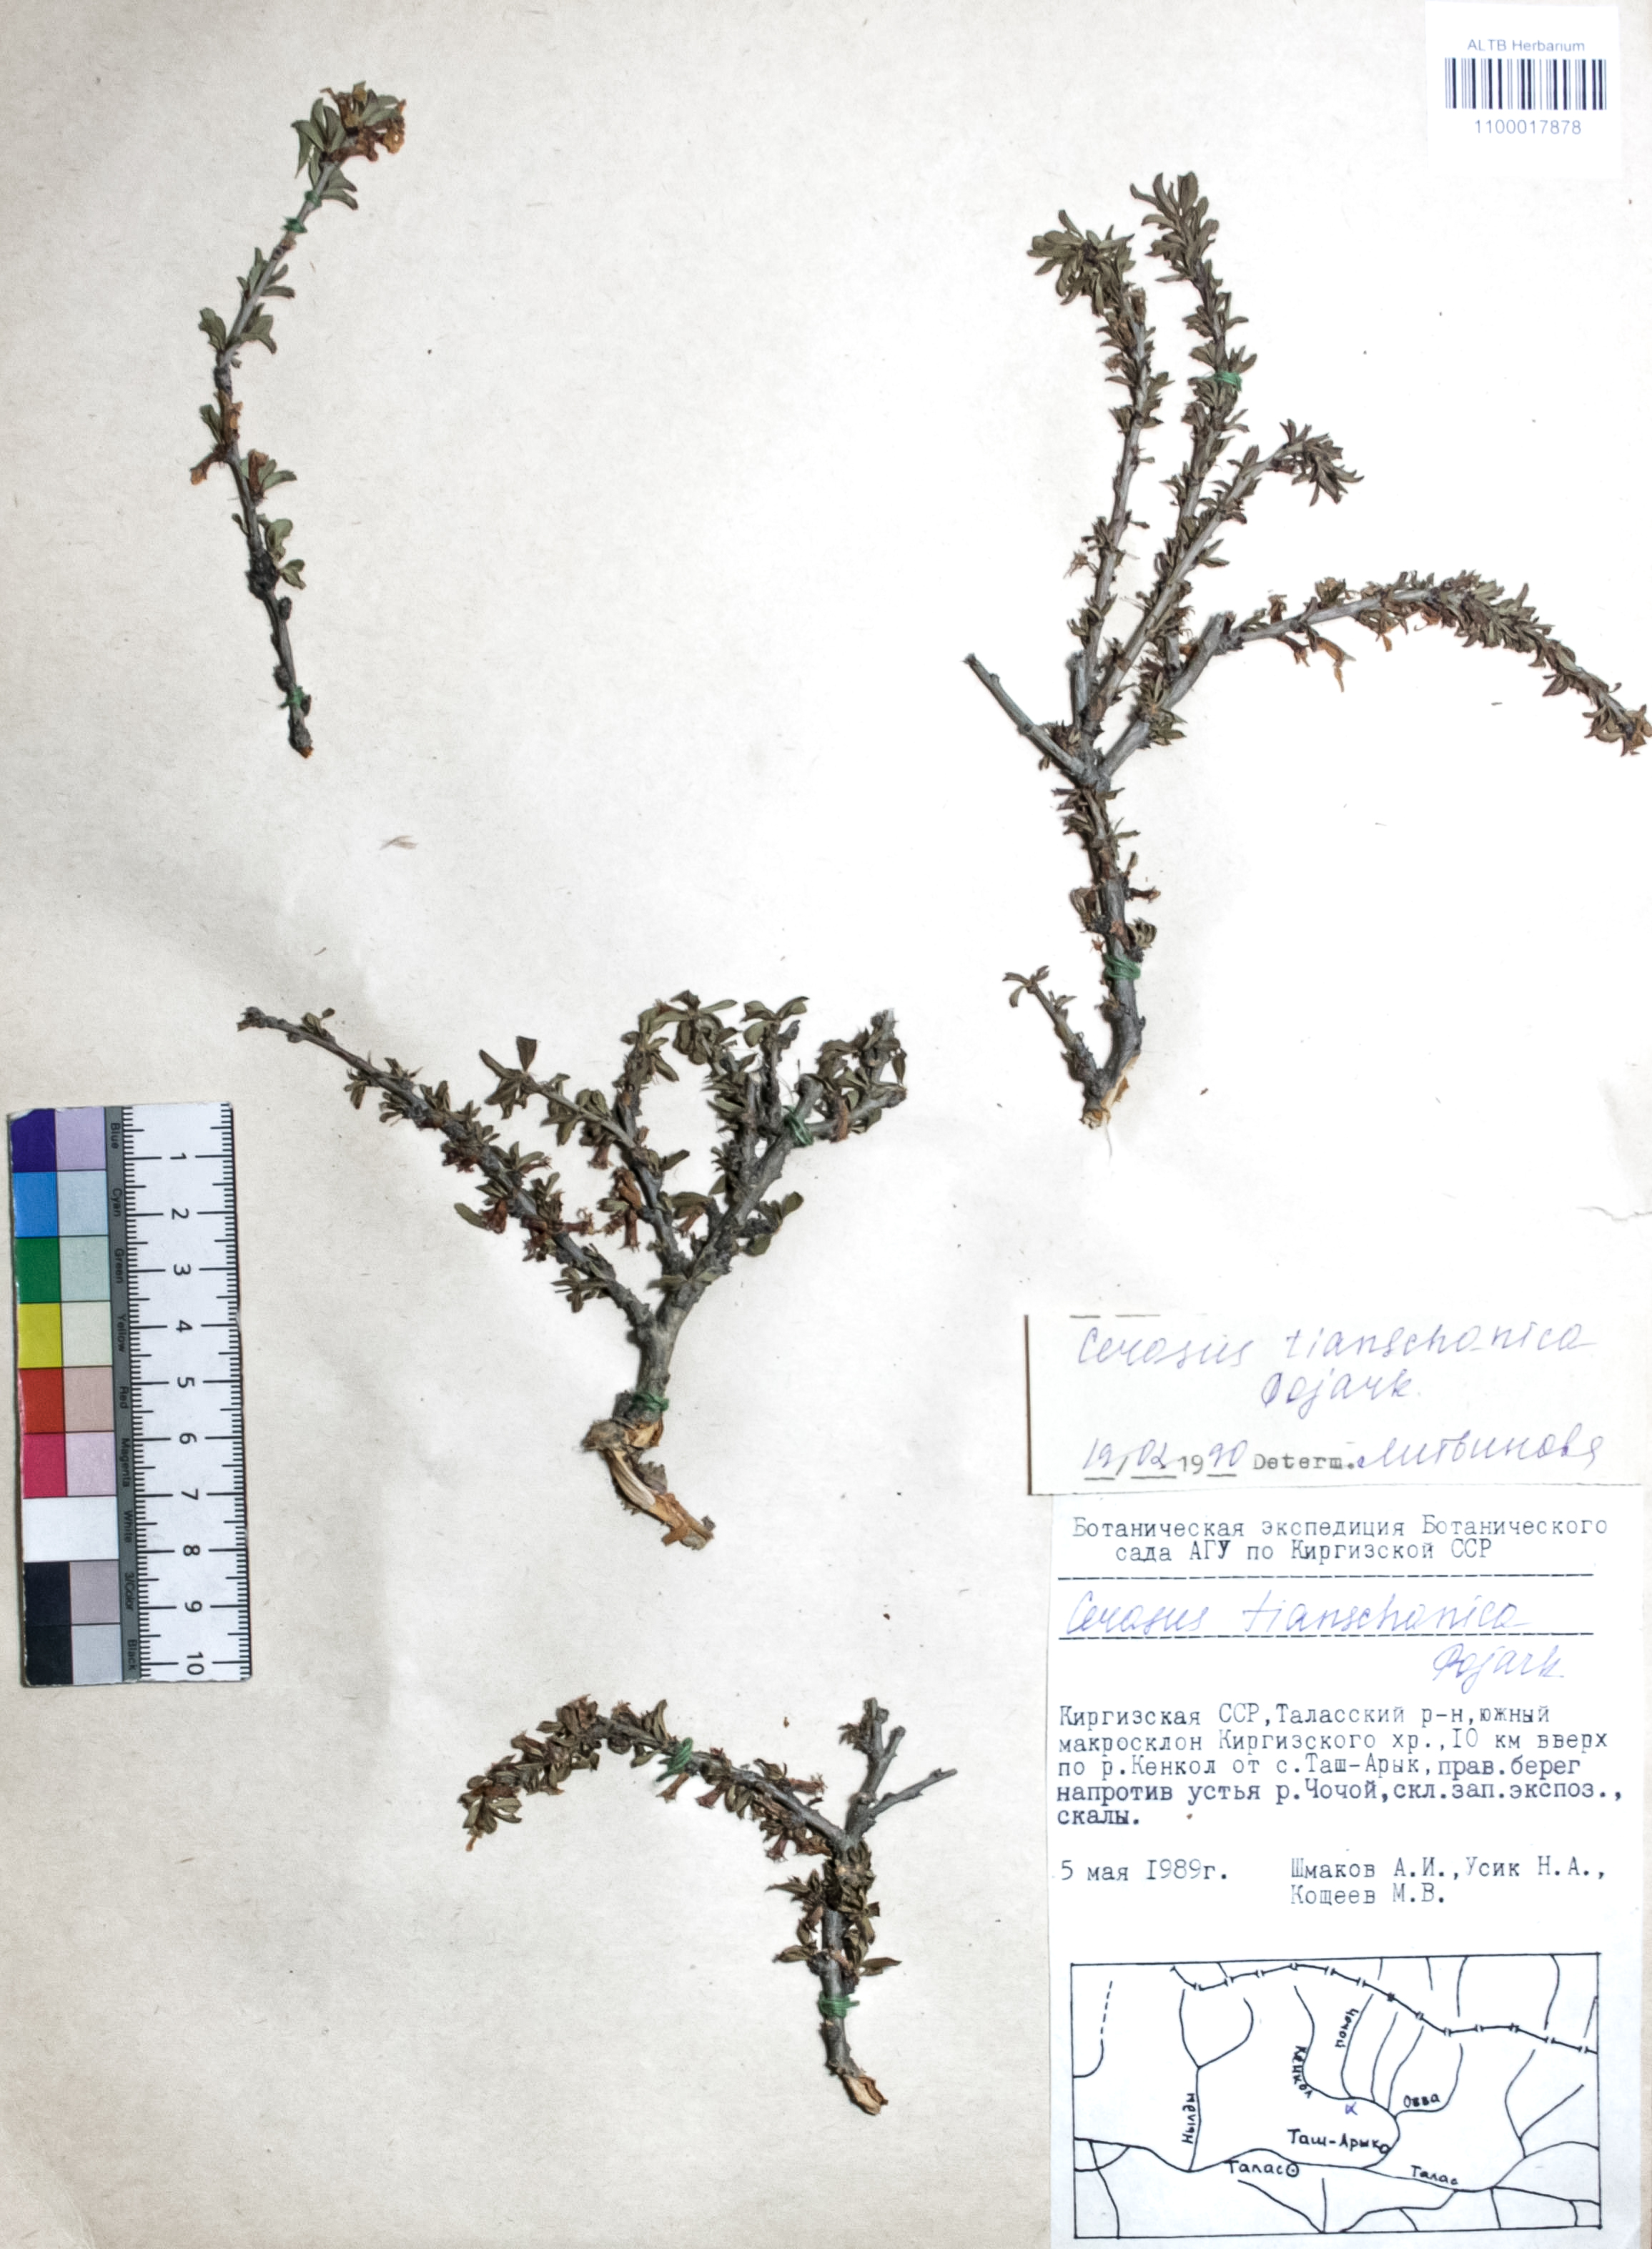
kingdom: Plantae
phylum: Tracheophyta
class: Magnoliopsida
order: Rosales
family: Rosaceae
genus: Prunus
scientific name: Prunus griffithii
